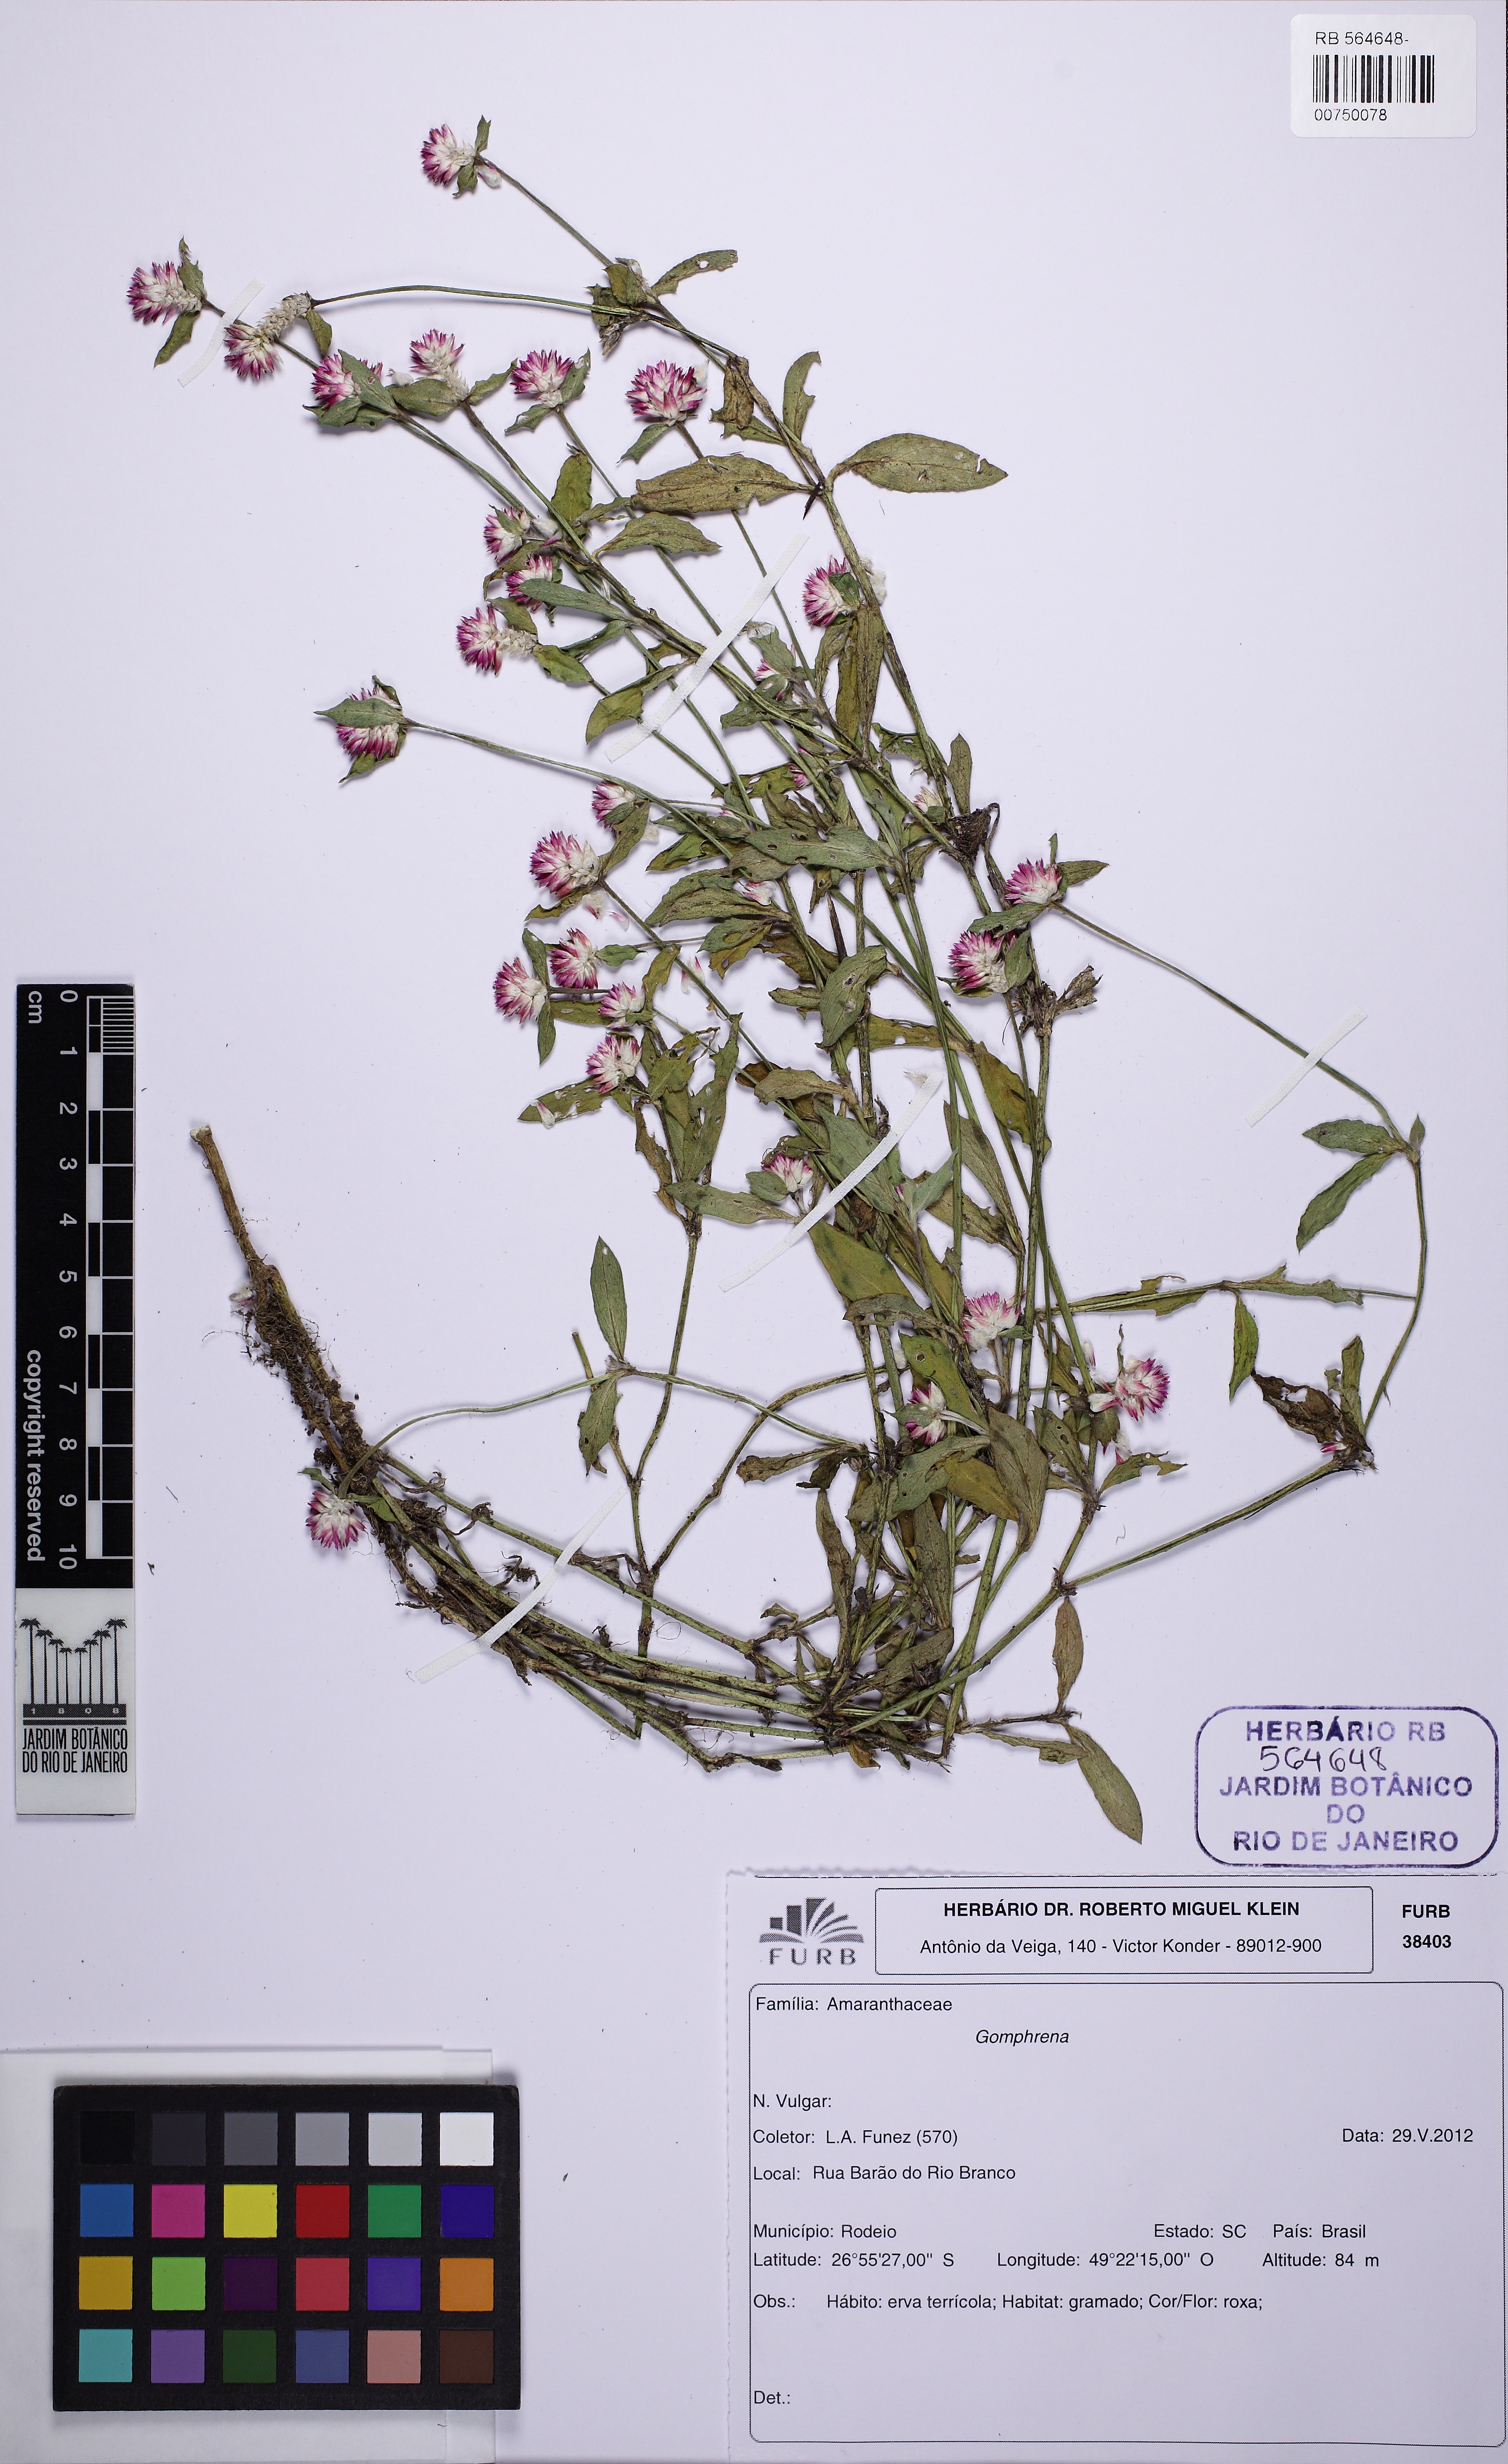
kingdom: Plantae
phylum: Tracheophyta
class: Magnoliopsida
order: Caryophyllales
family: Amaranthaceae
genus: Gomphrena
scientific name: Gomphrena
